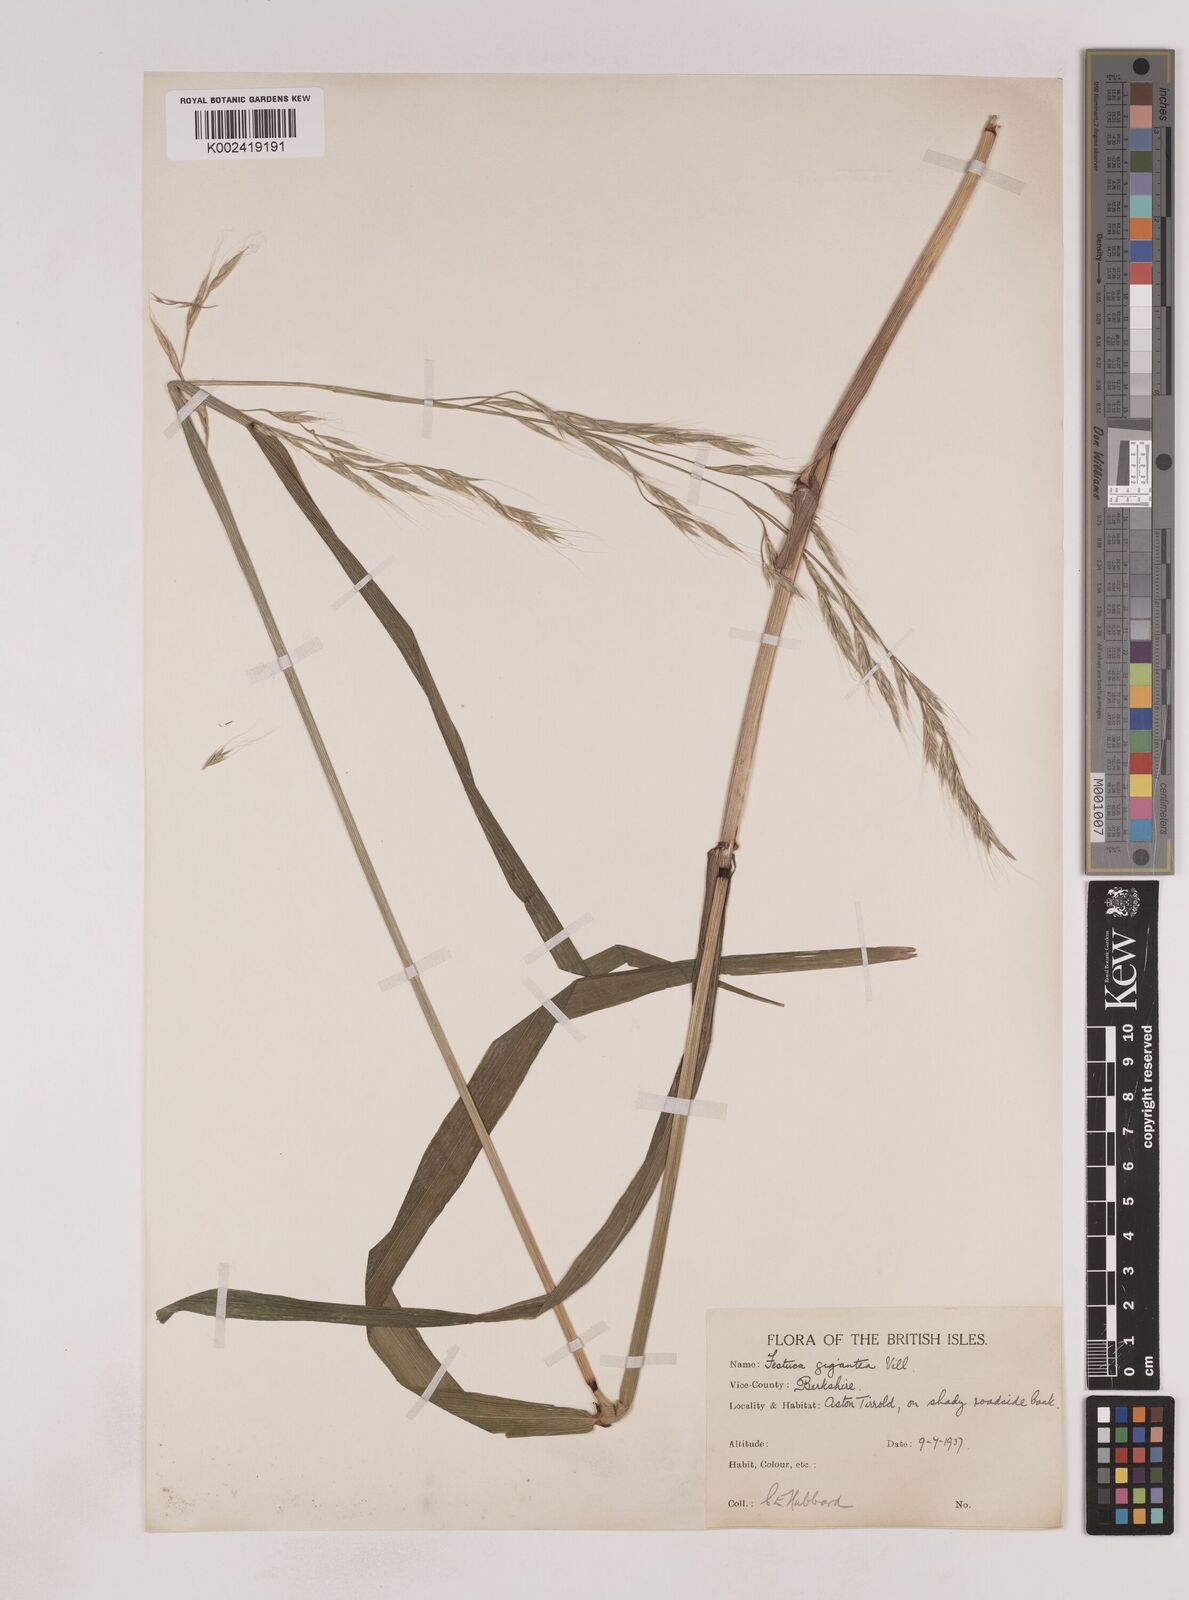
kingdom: Plantae
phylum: Tracheophyta
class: Liliopsida
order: Poales
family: Poaceae
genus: Lolium
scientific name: Lolium giganteum
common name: Giant fescue
